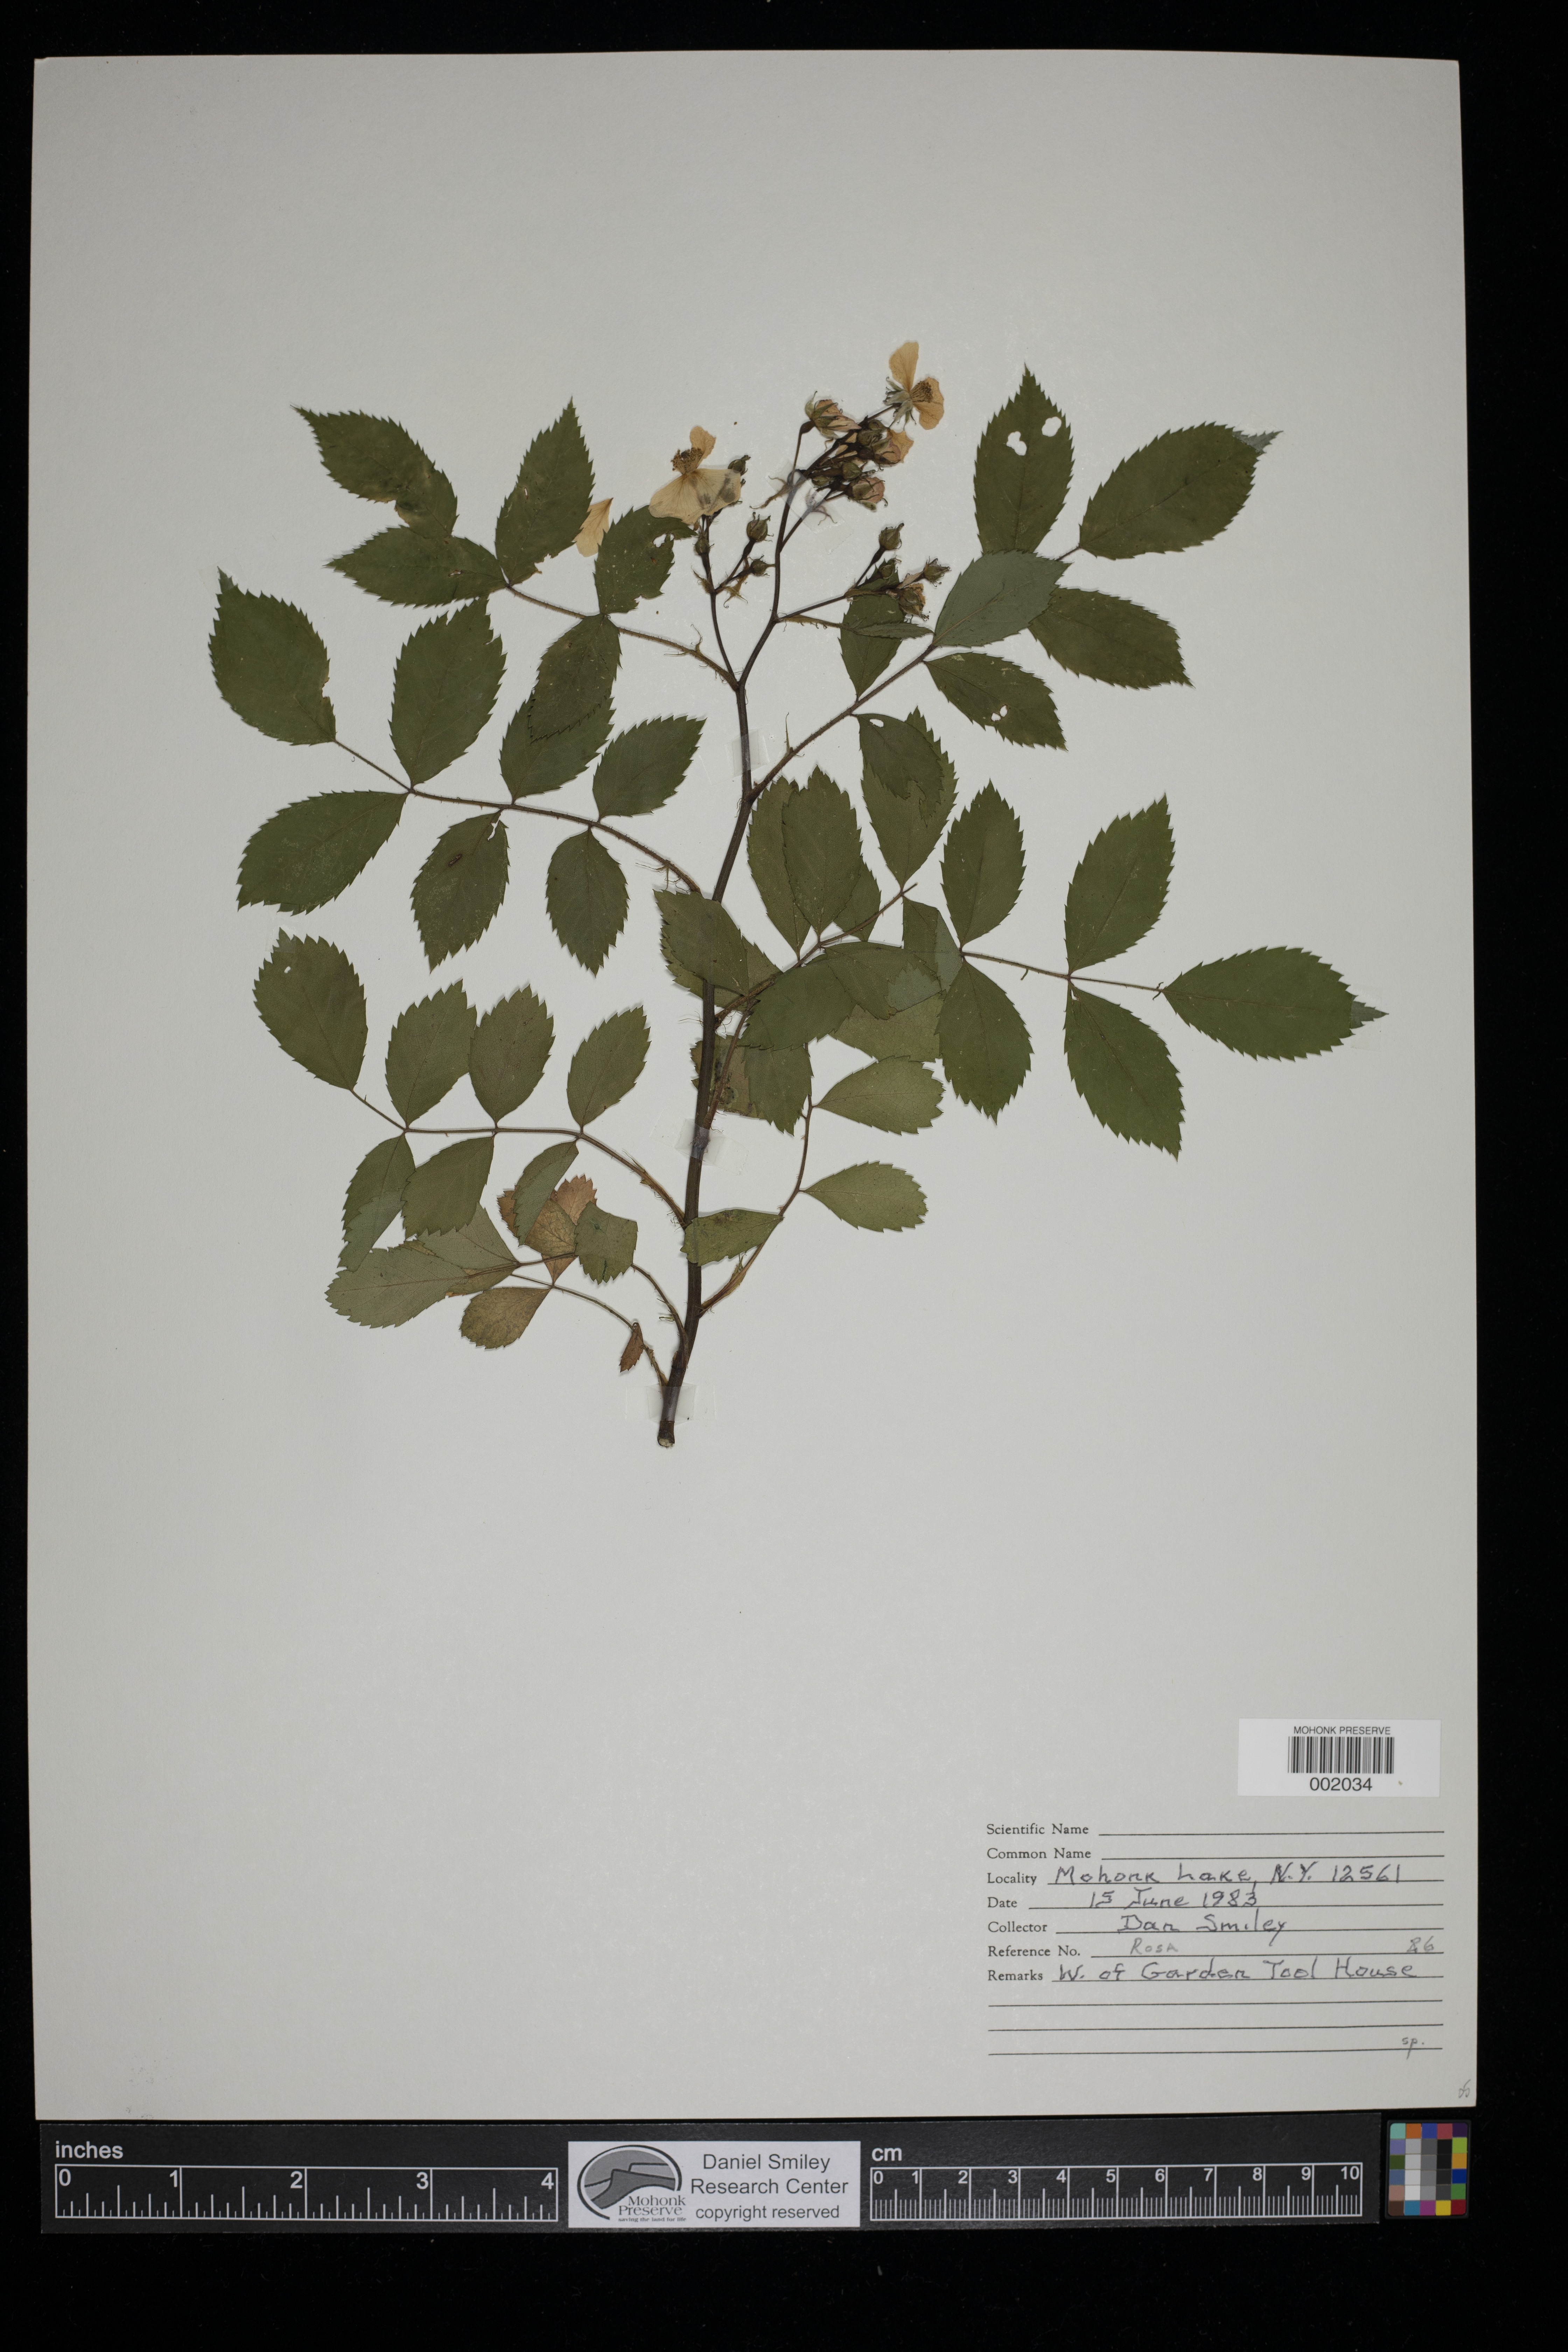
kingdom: Plantae
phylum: Tracheophyta
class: Magnoliopsida
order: Rosales
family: Rosaceae
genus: Rosa
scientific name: Rosa
